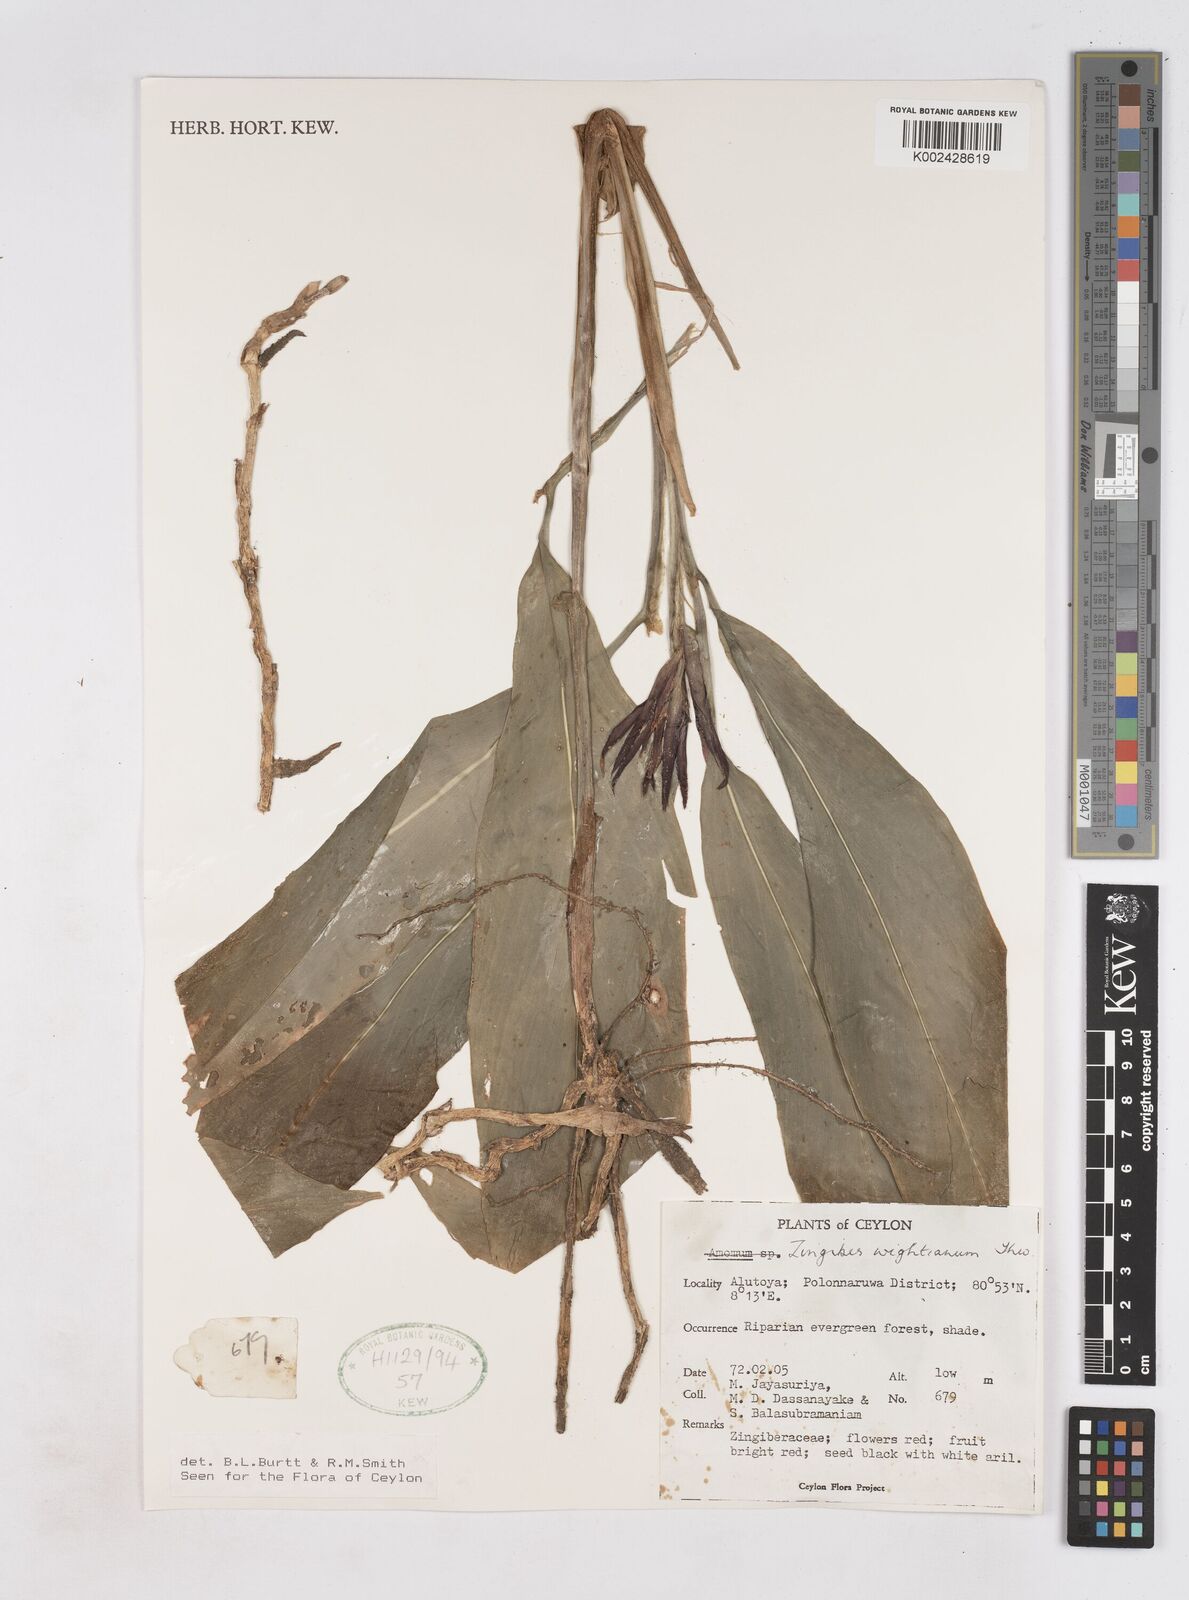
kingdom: Plantae
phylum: Tracheophyta
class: Liliopsida
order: Zingiberales
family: Zingiberaceae
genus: Zingiber
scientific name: Zingiber wightianum
